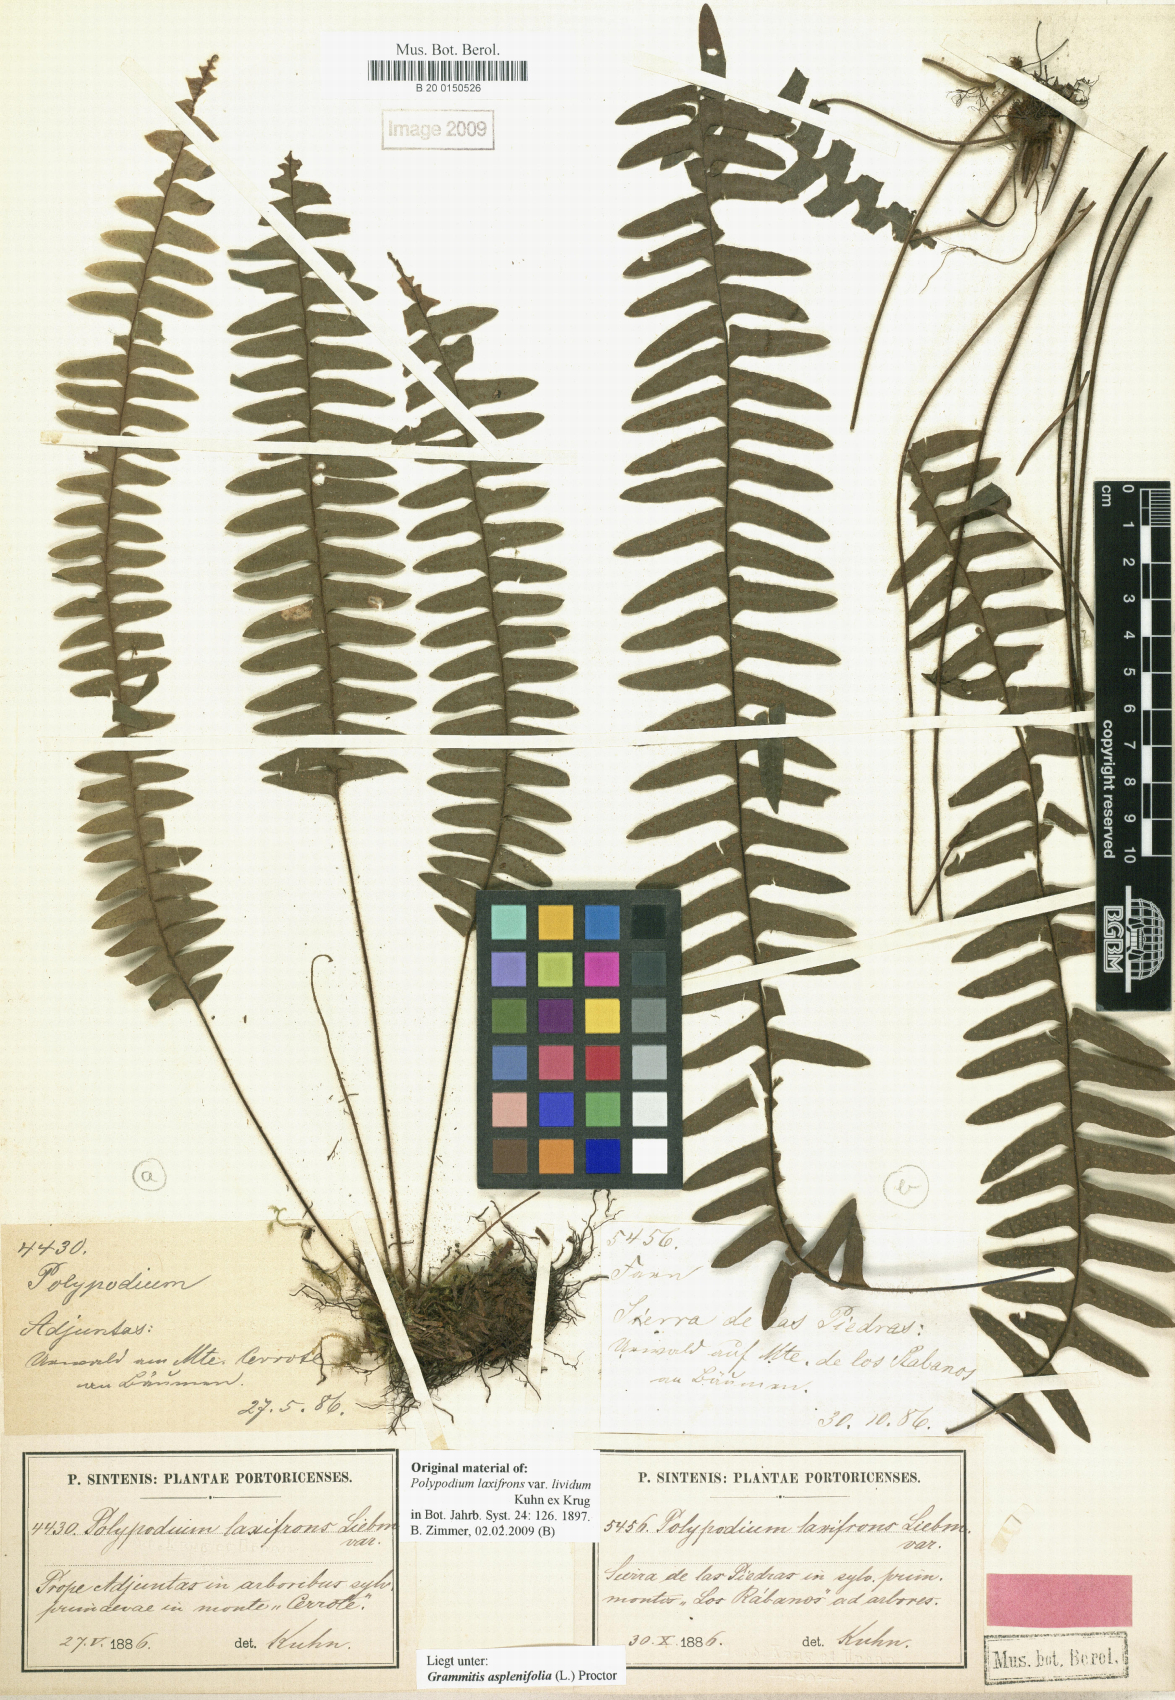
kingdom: Plantae
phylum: Tracheophyta
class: Polypodiopsida
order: Polypodiales
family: Polypodiaceae
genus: Terpsichore
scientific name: Terpsichore asplenifolia
